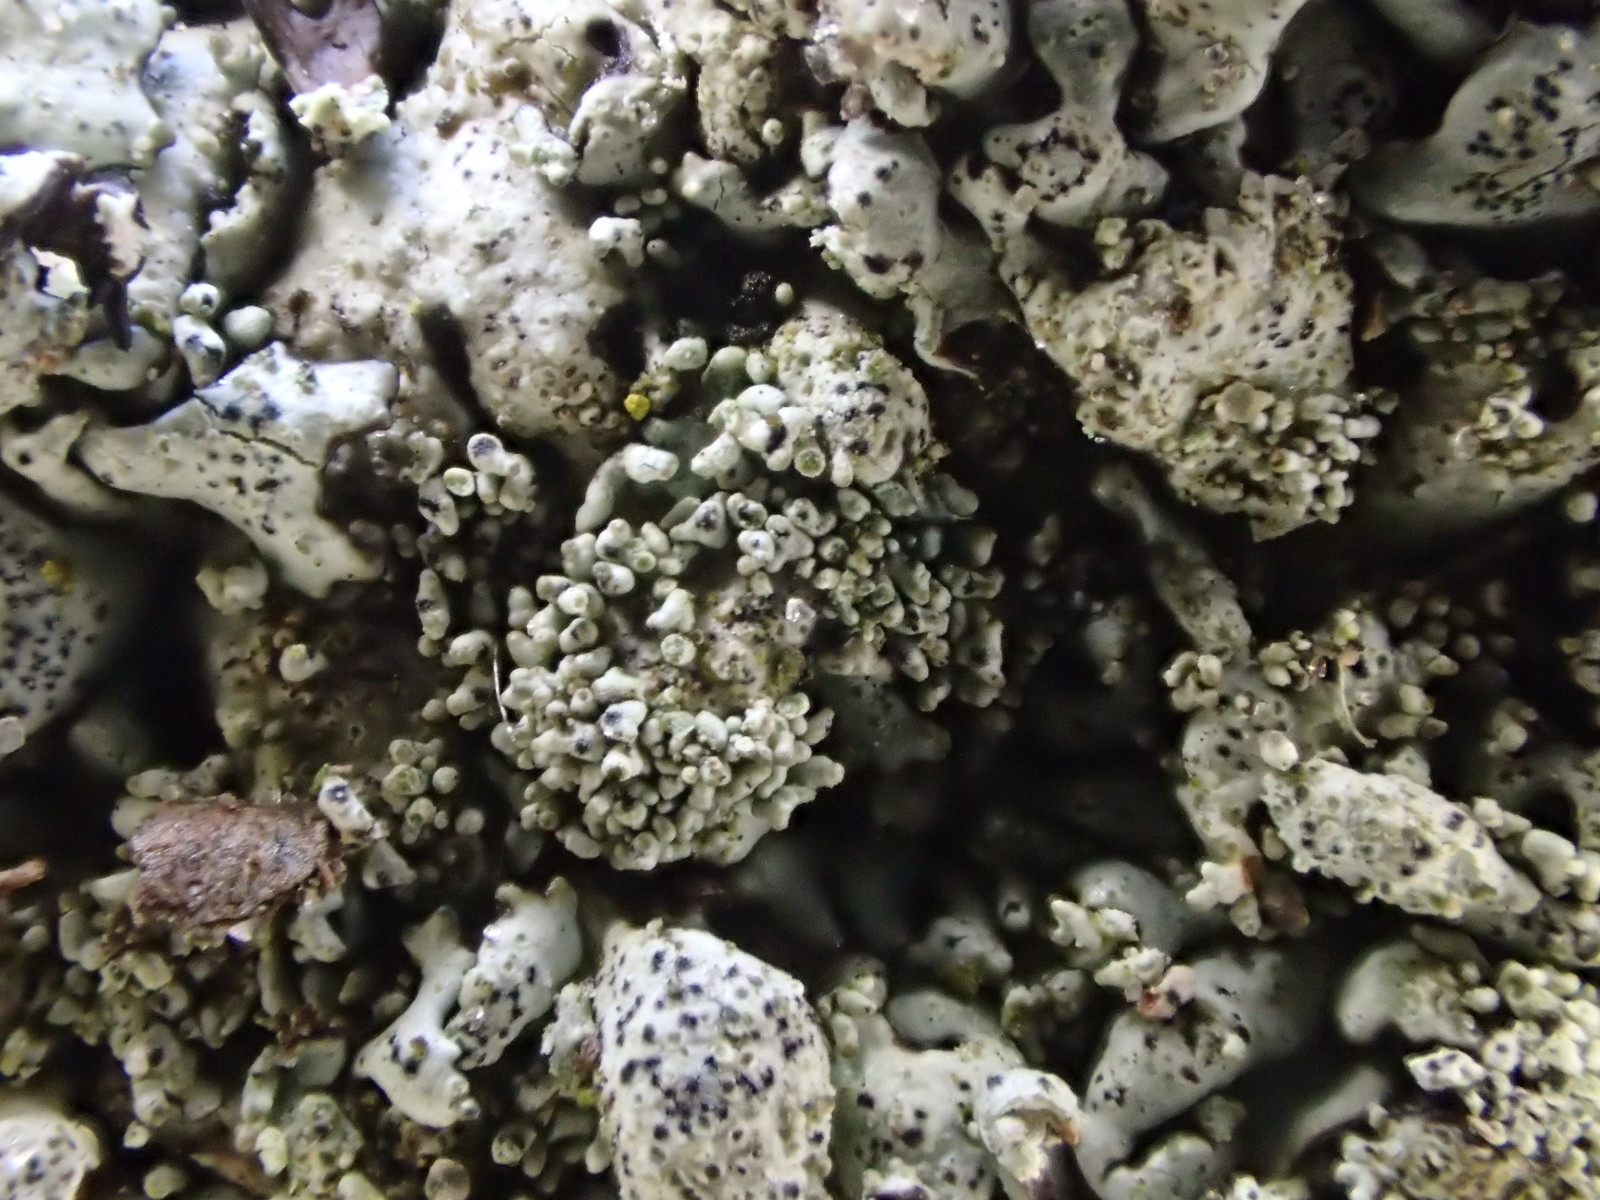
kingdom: Fungi
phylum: Ascomycota
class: Lecanoromycetes
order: Lecanorales
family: Parmeliaceae
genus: Xanthoparmelia
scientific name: Xanthoparmelia conspersa
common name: messing-skållav
